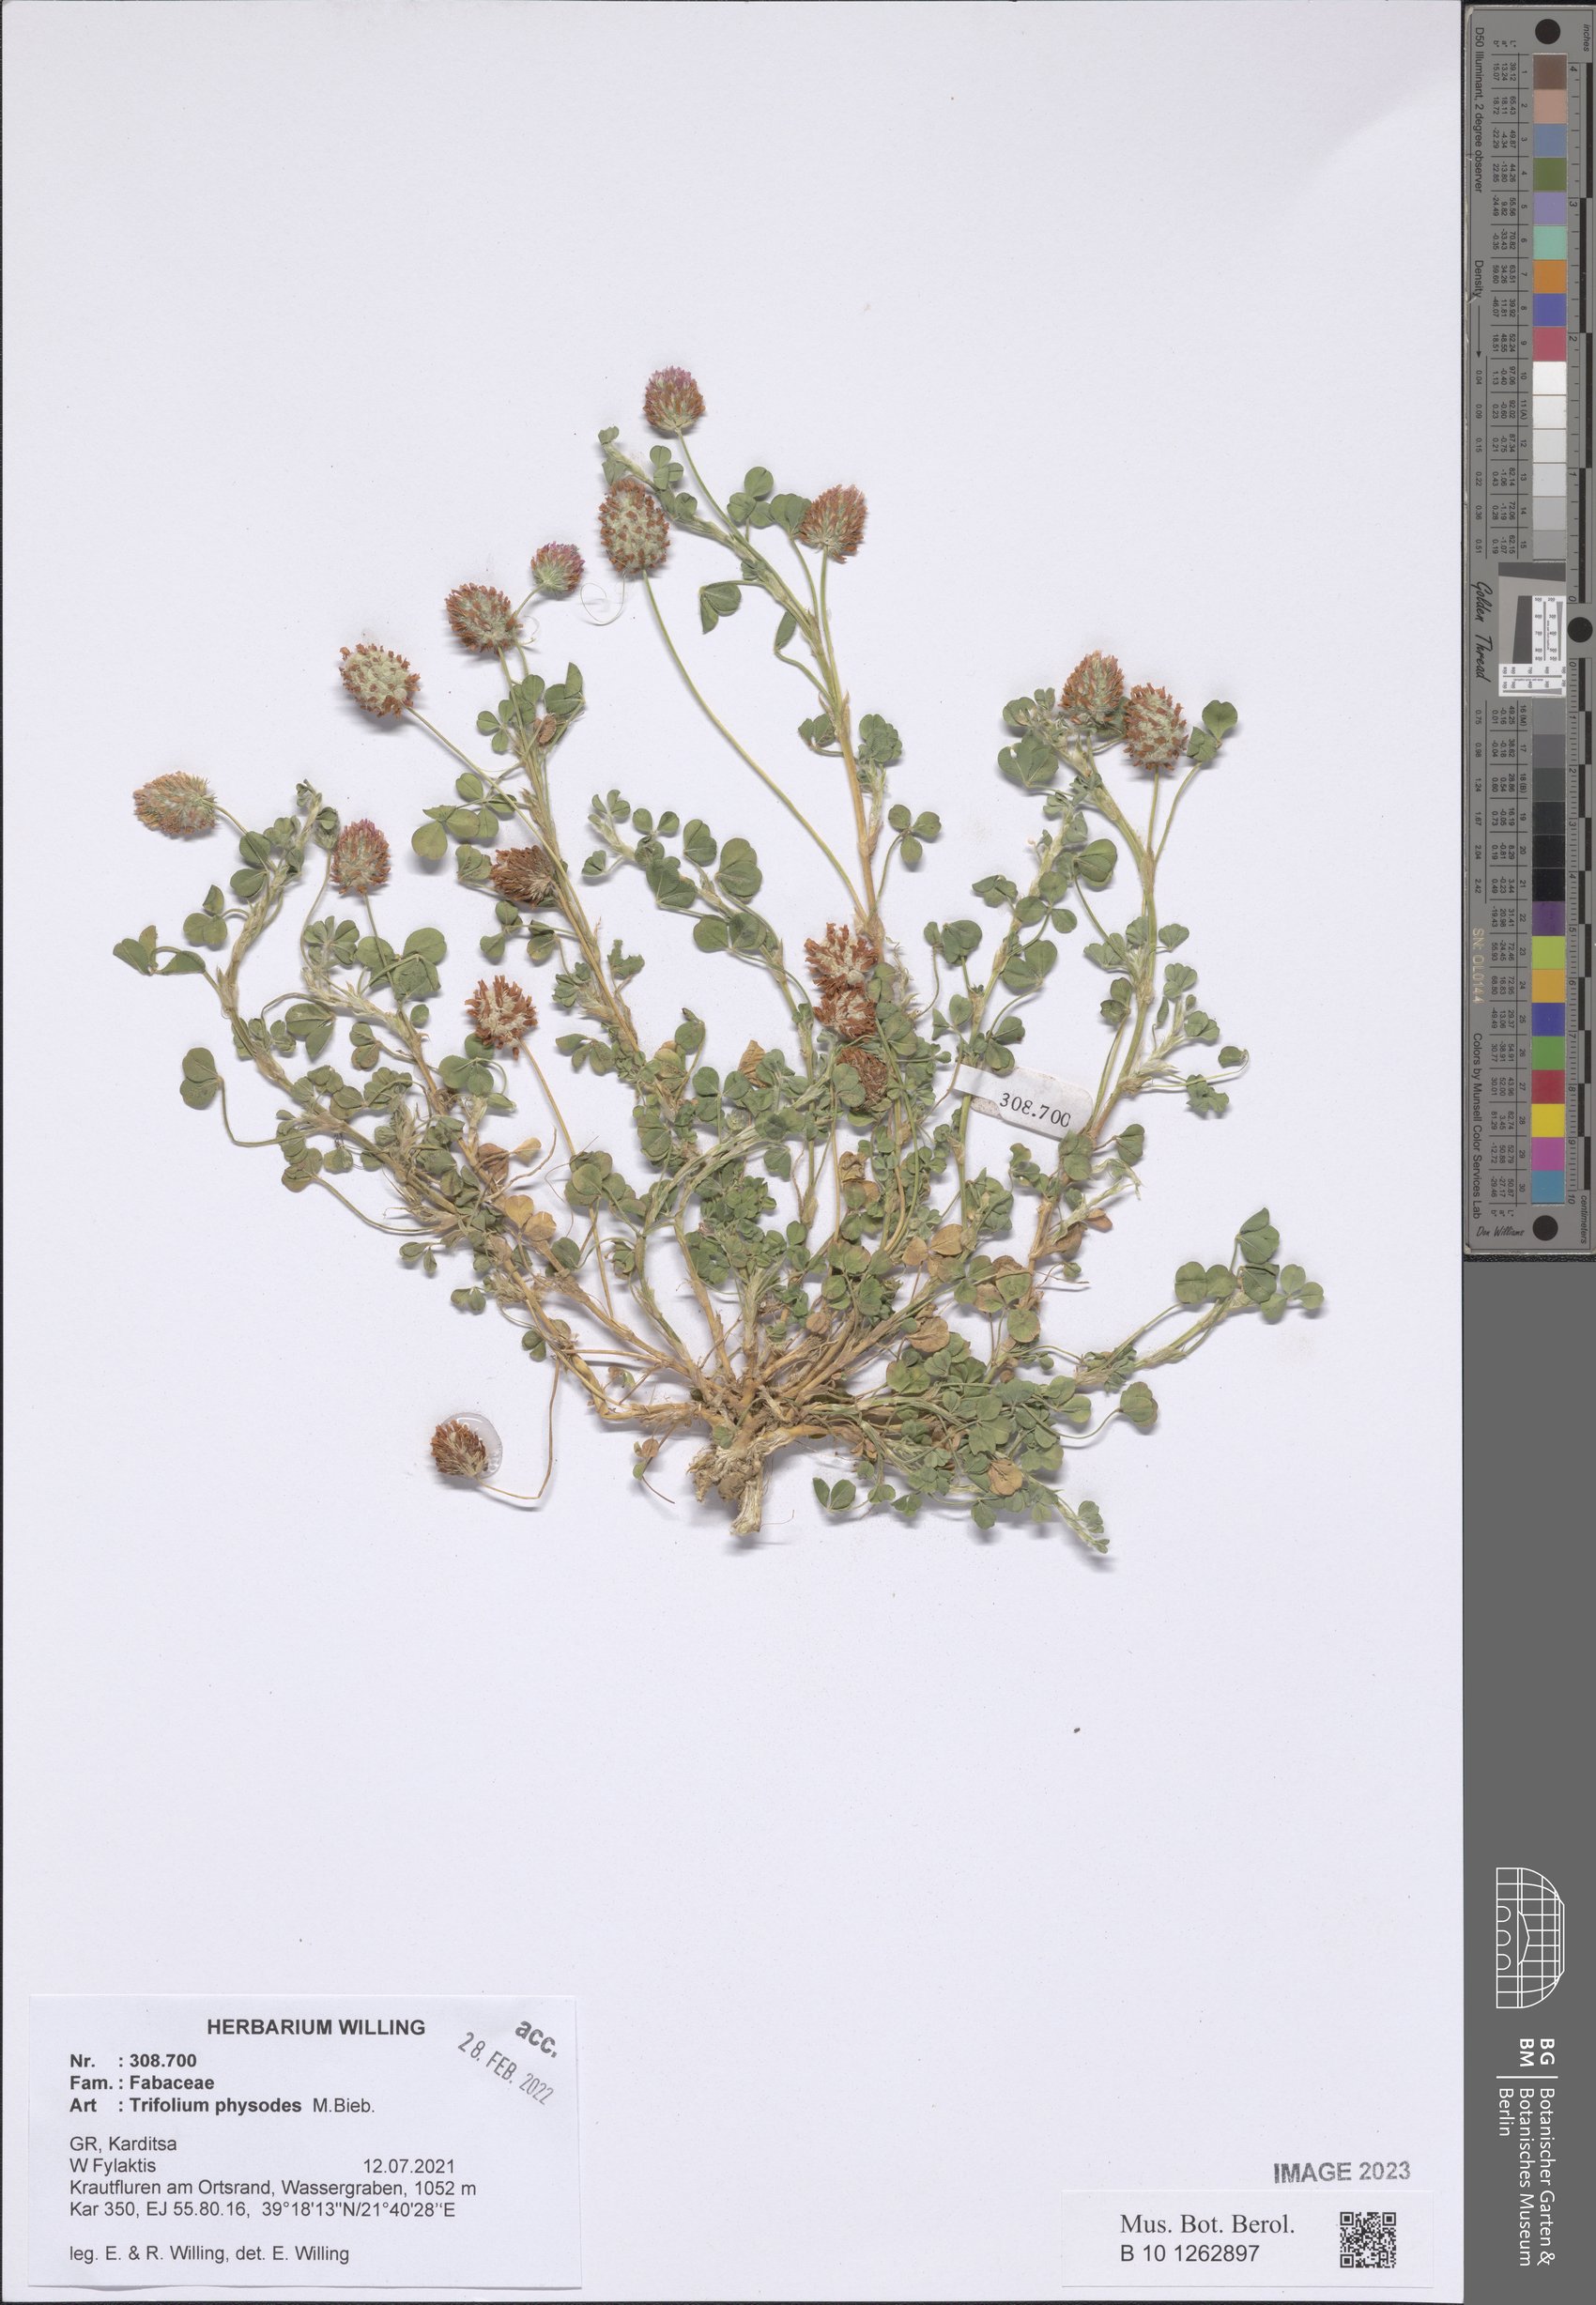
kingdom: Plantae
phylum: Tracheophyta
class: Magnoliopsida
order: Fabales
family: Fabaceae
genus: Trifolium
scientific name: Trifolium physodes
